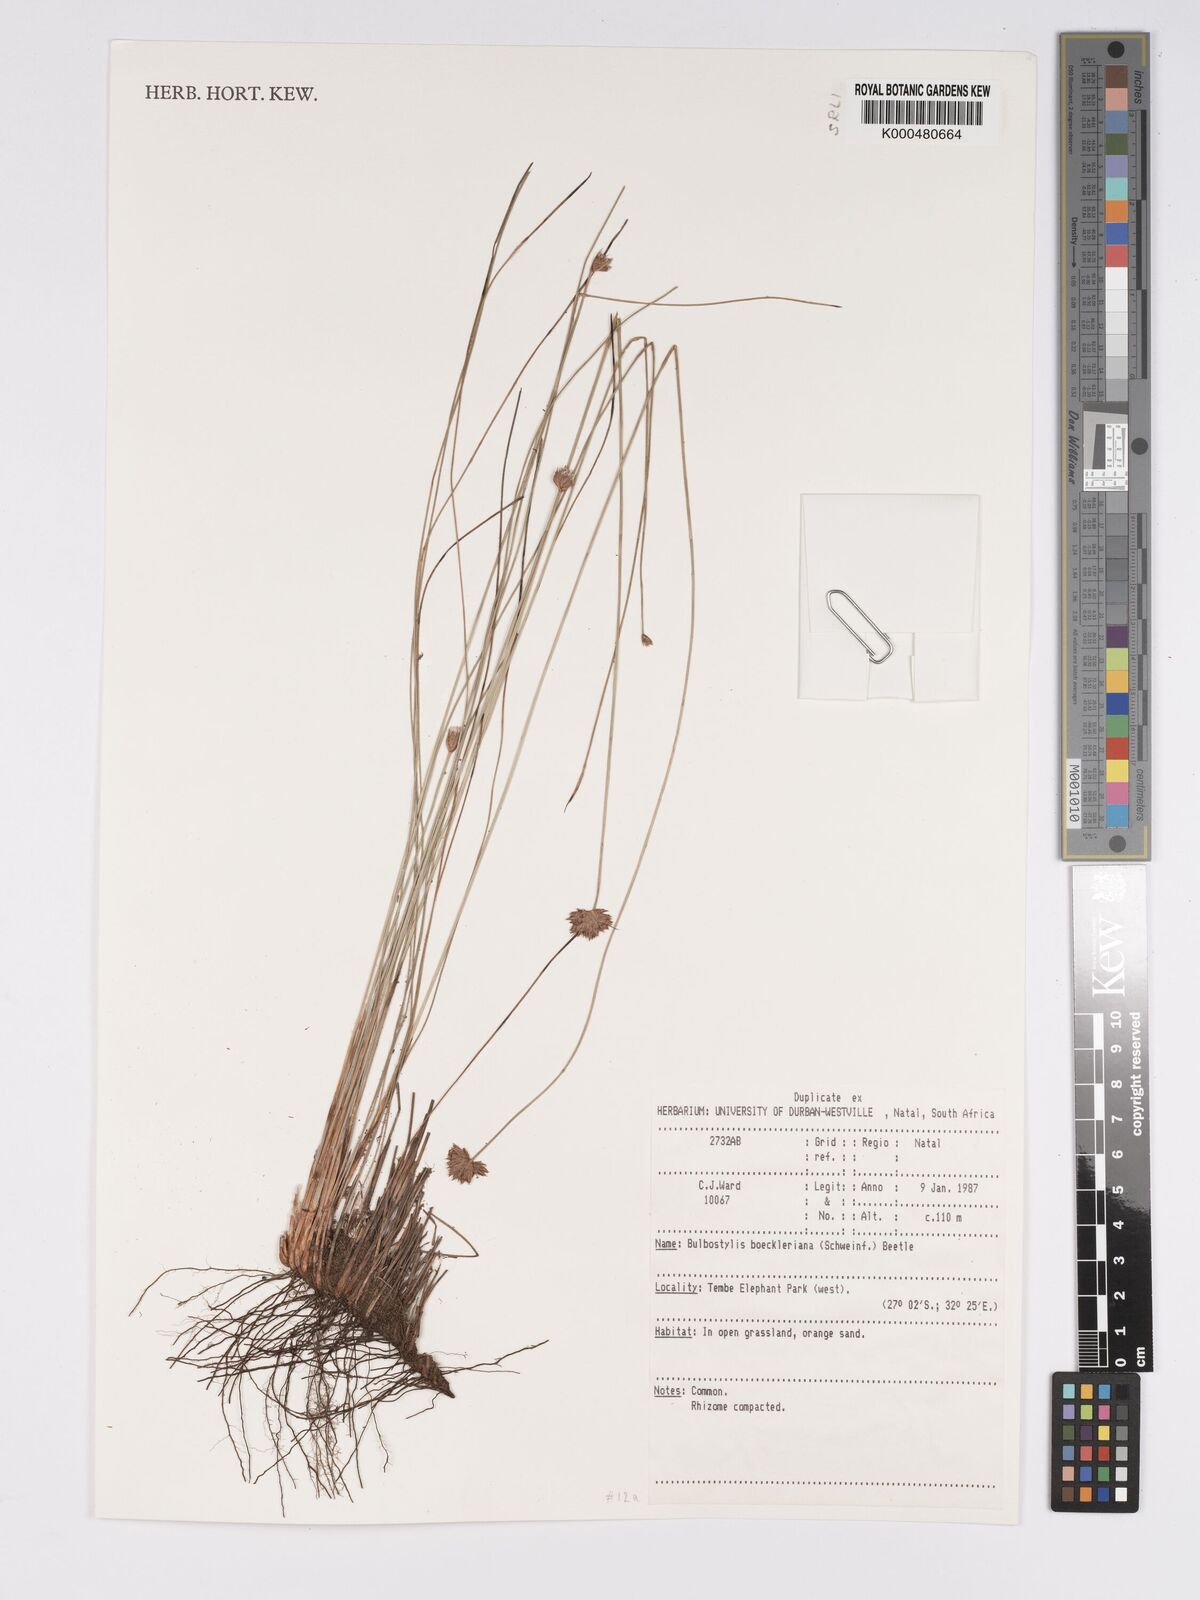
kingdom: Plantae
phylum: Tracheophyta
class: Liliopsida
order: Poales
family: Cyperaceae
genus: Bulbostylis
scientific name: Bulbostylis boeckeleriana
